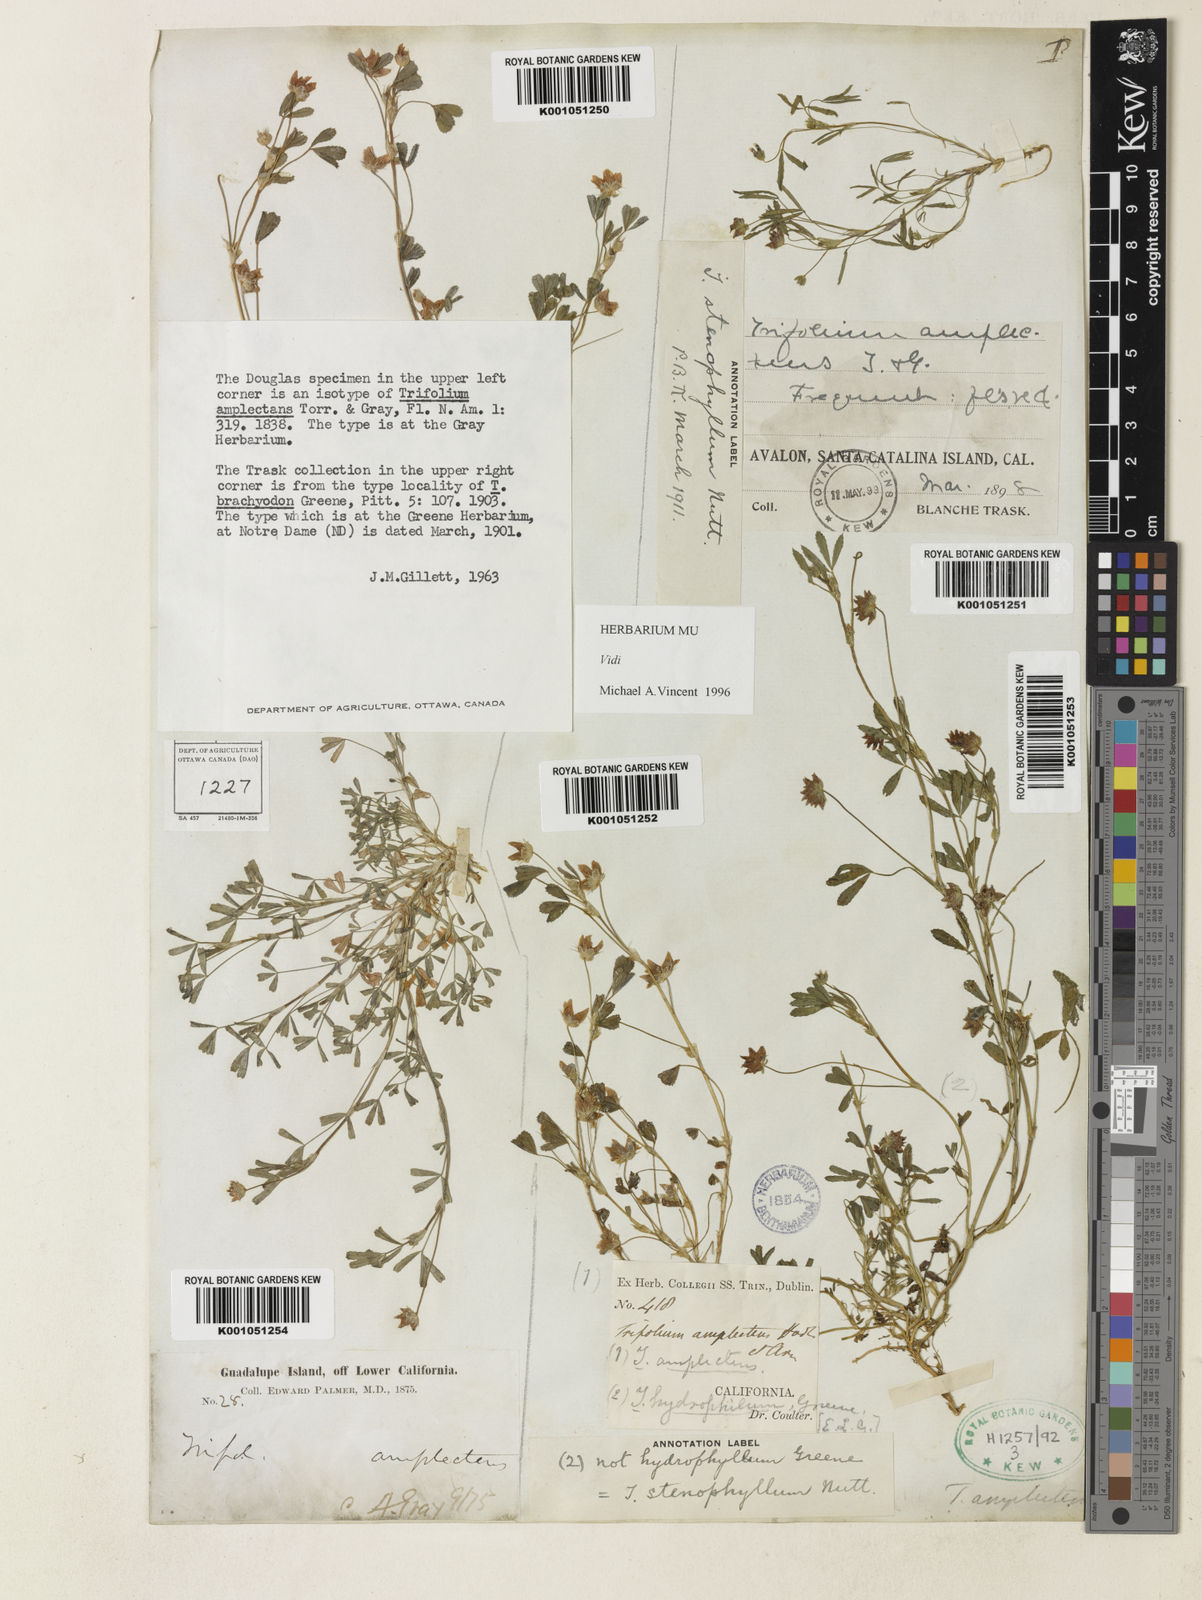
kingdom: Plantae
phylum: Tracheophyta
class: Magnoliopsida
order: Fabales
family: Fabaceae
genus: Trifolium
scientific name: Trifolium depauperatum
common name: Poverty clover
